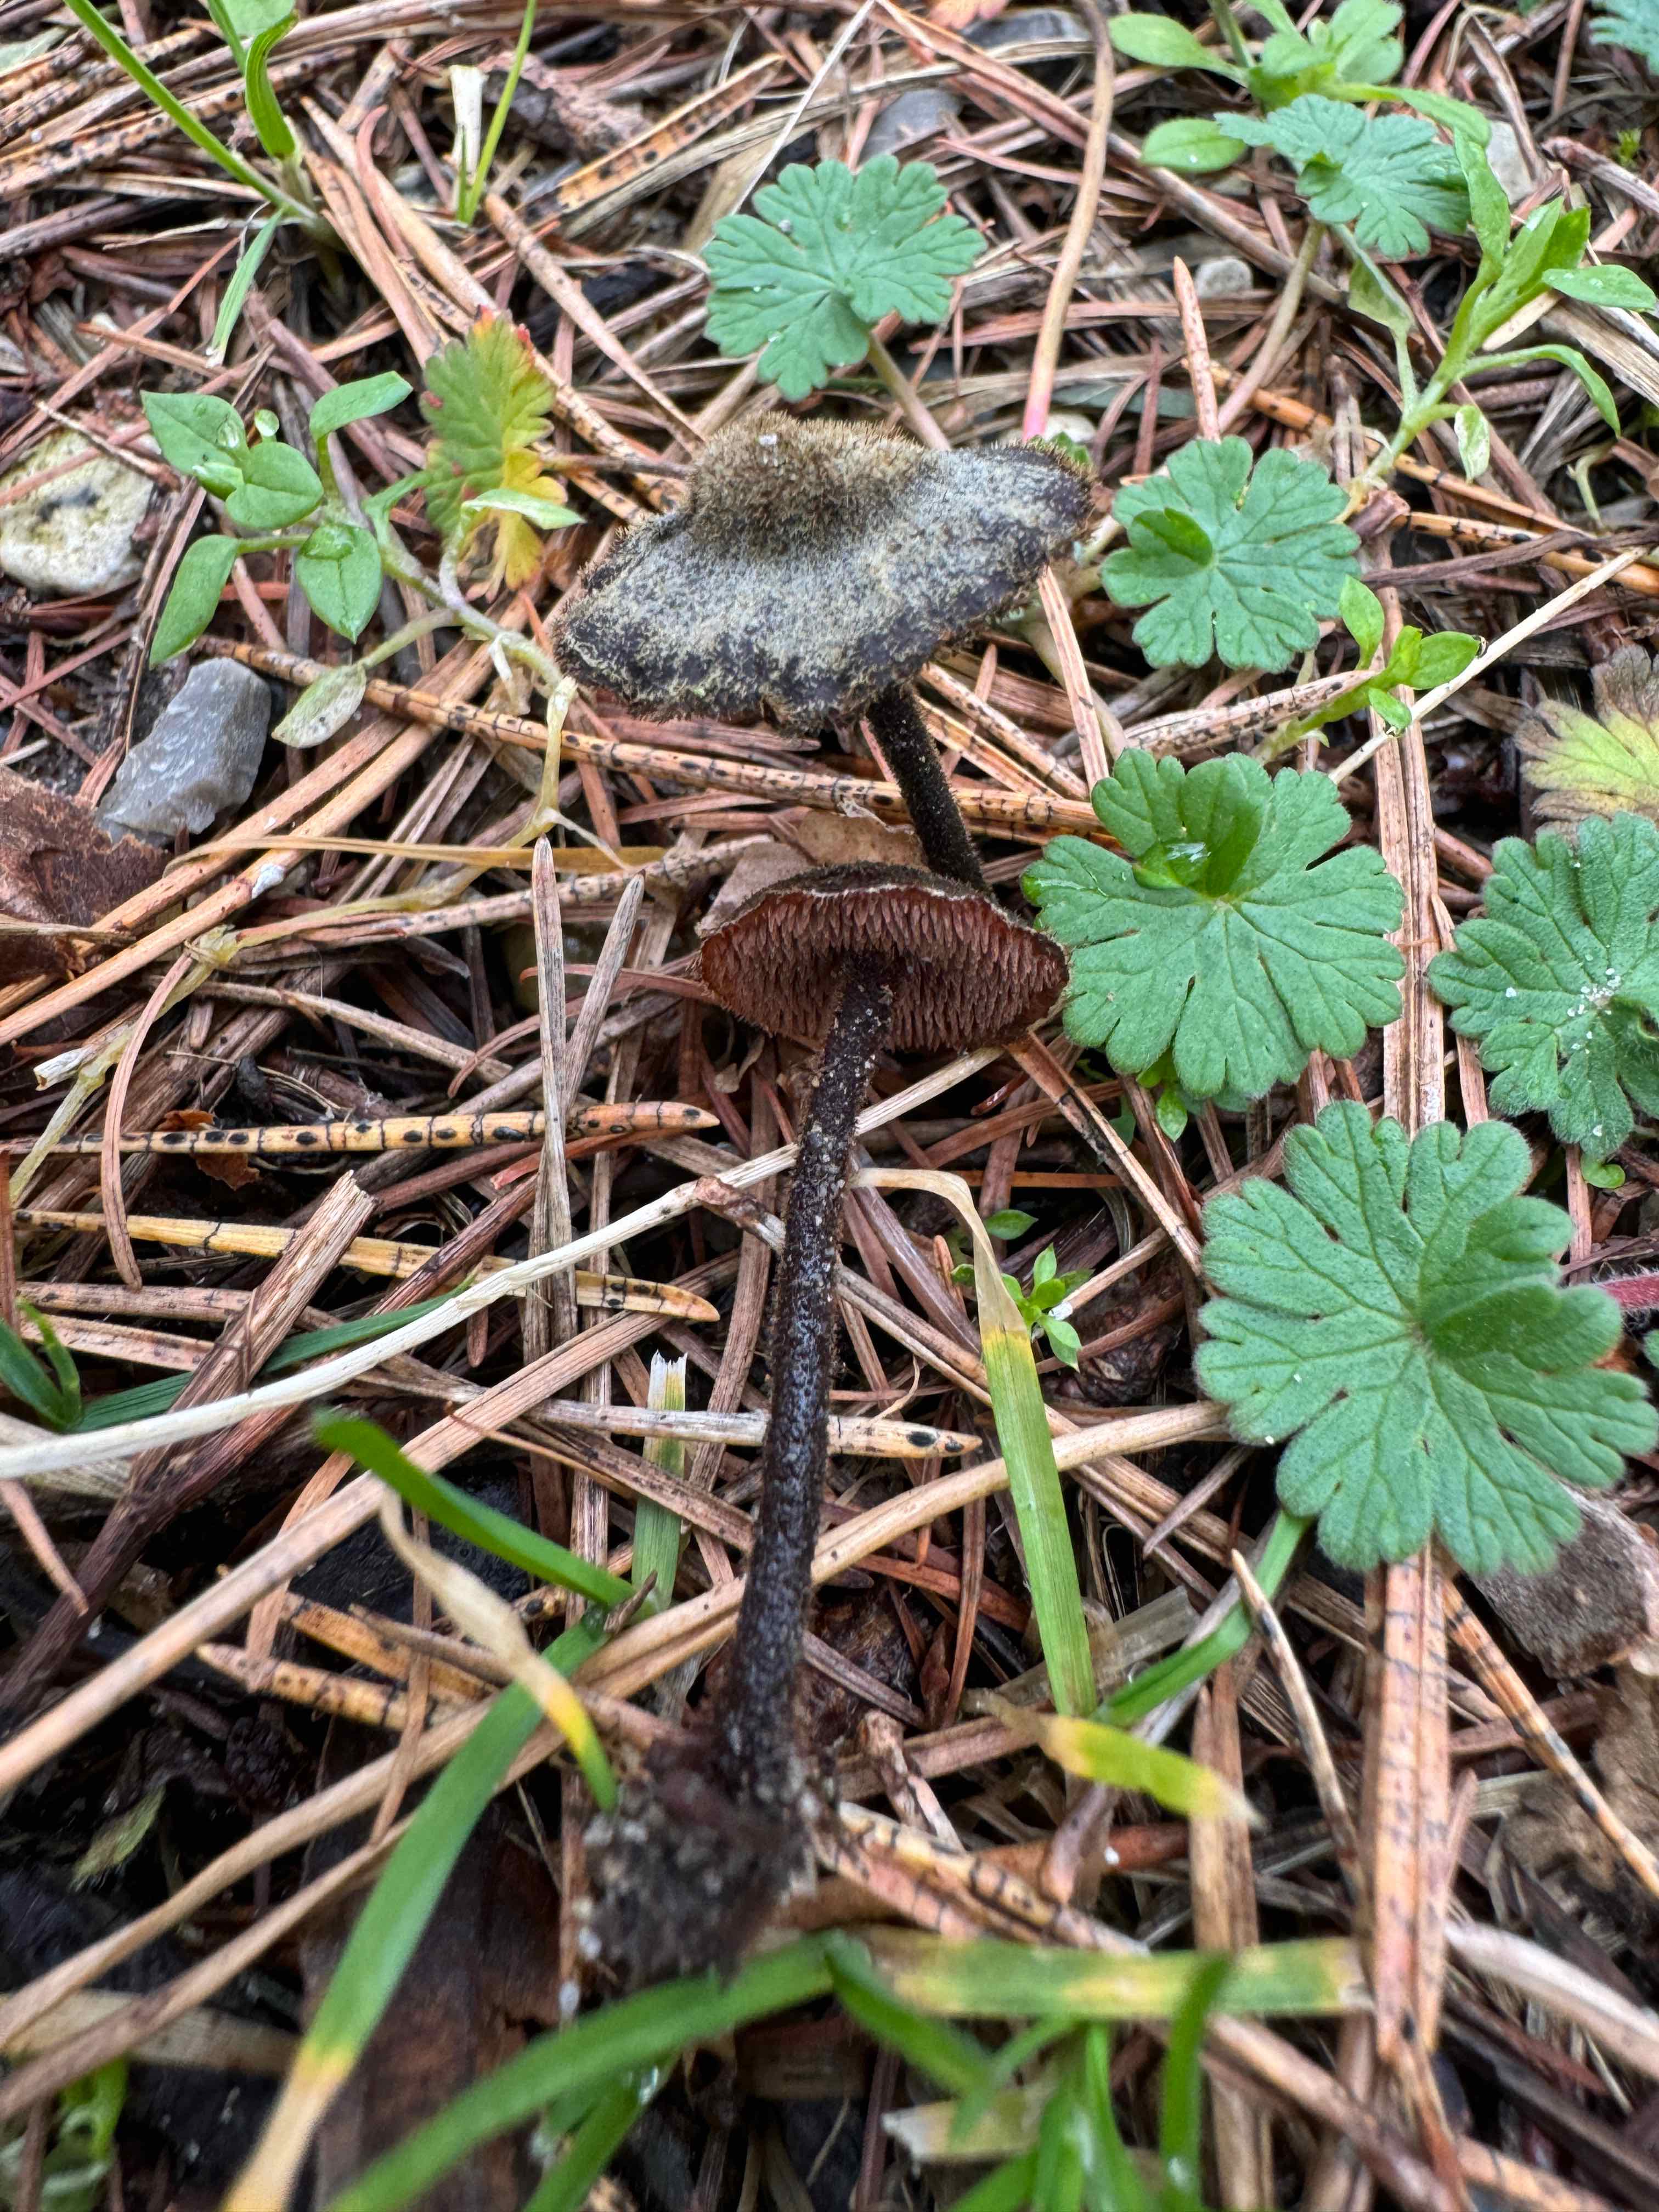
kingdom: Fungi
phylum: Basidiomycota
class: Agaricomycetes
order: Russulales
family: Auriscalpiaceae
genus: Auriscalpium
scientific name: Auriscalpium vulgare
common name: koglepigsvamp
